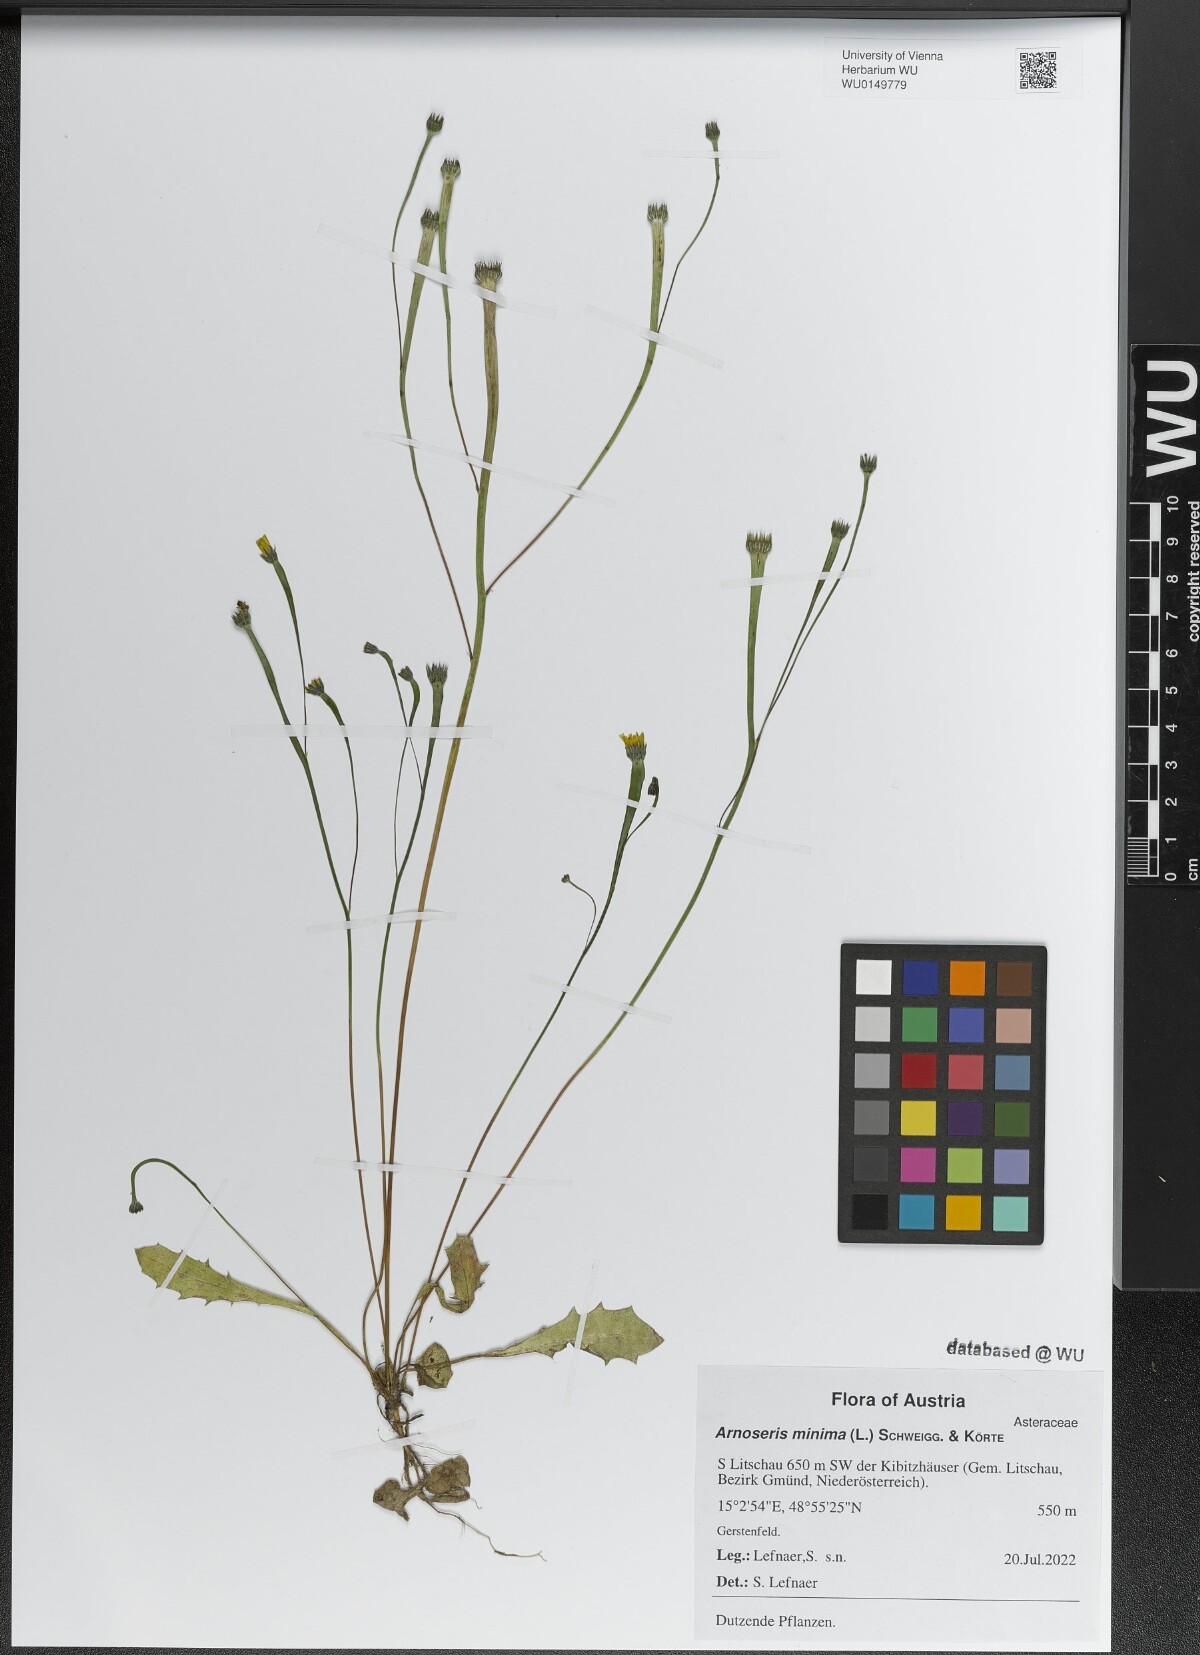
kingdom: Plantae
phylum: Tracheophyta
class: Magnoliopsida
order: Asterales
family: Asteraceae
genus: Arnoseris
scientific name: Arnoseris minima
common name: Lamb's succory
